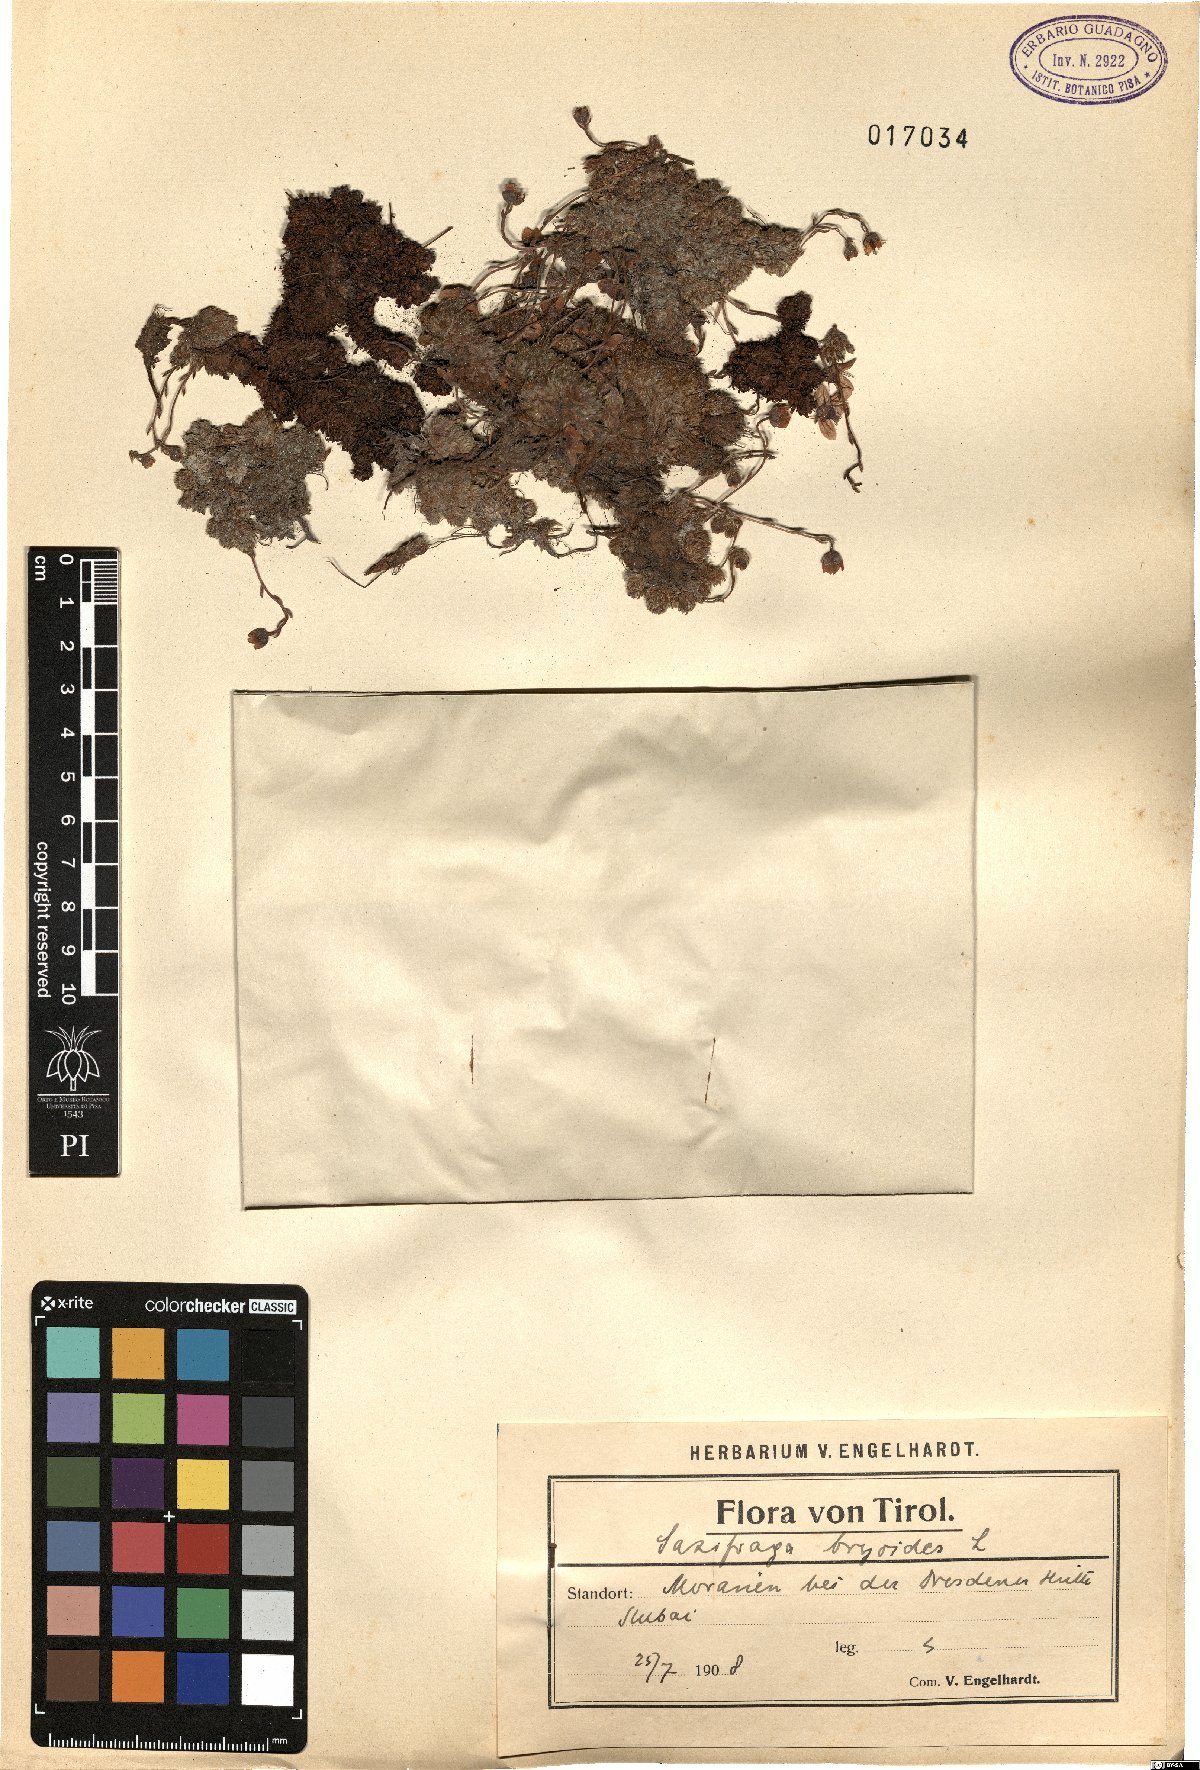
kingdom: Plantae
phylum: Tracheophyta
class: Magnoliopsida
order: Saxifragales
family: Saxifragaceae
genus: Saxifraga
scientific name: Saxifraga bryoides
